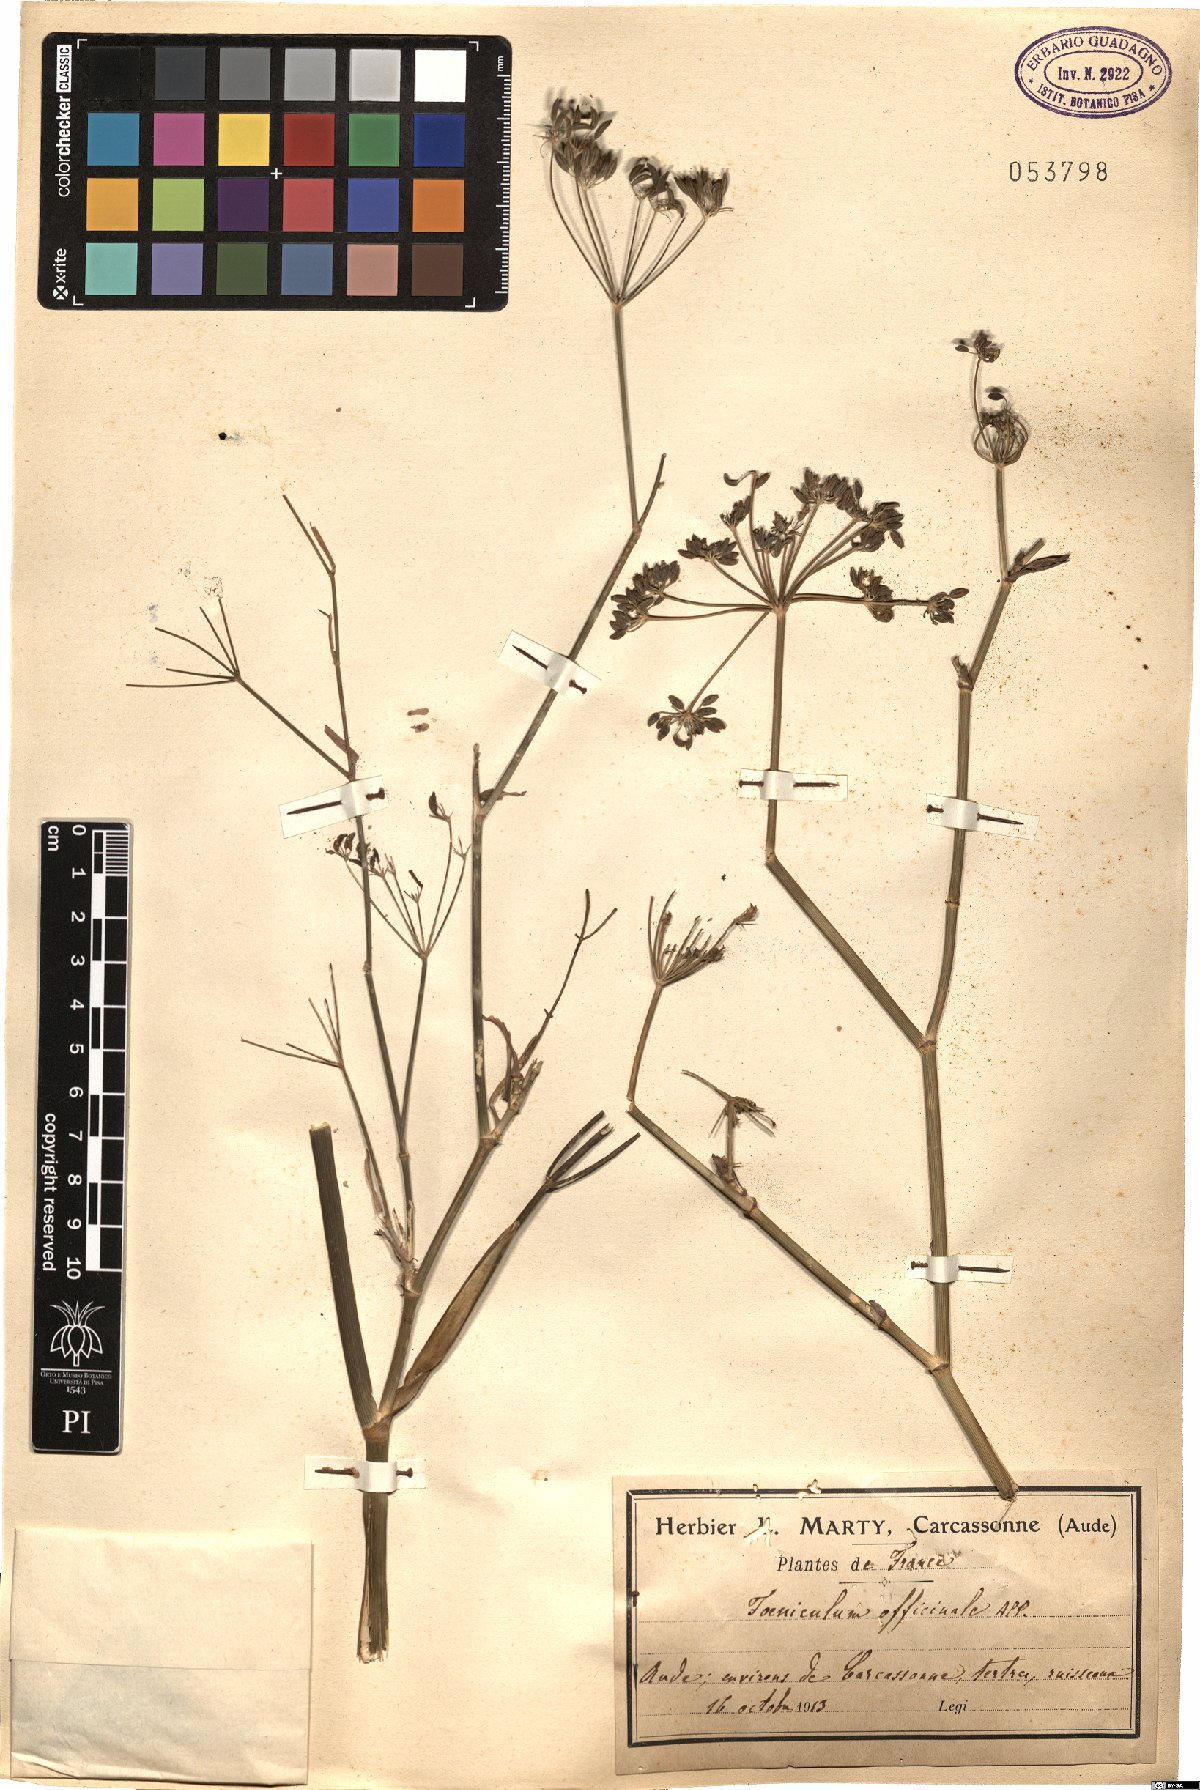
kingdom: Plantae
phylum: Tracheophyta
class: Magnoliopsida
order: Apiales
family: Apiaceae
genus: Foeniculum
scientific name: Foeniculum vulgare
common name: Fennel
